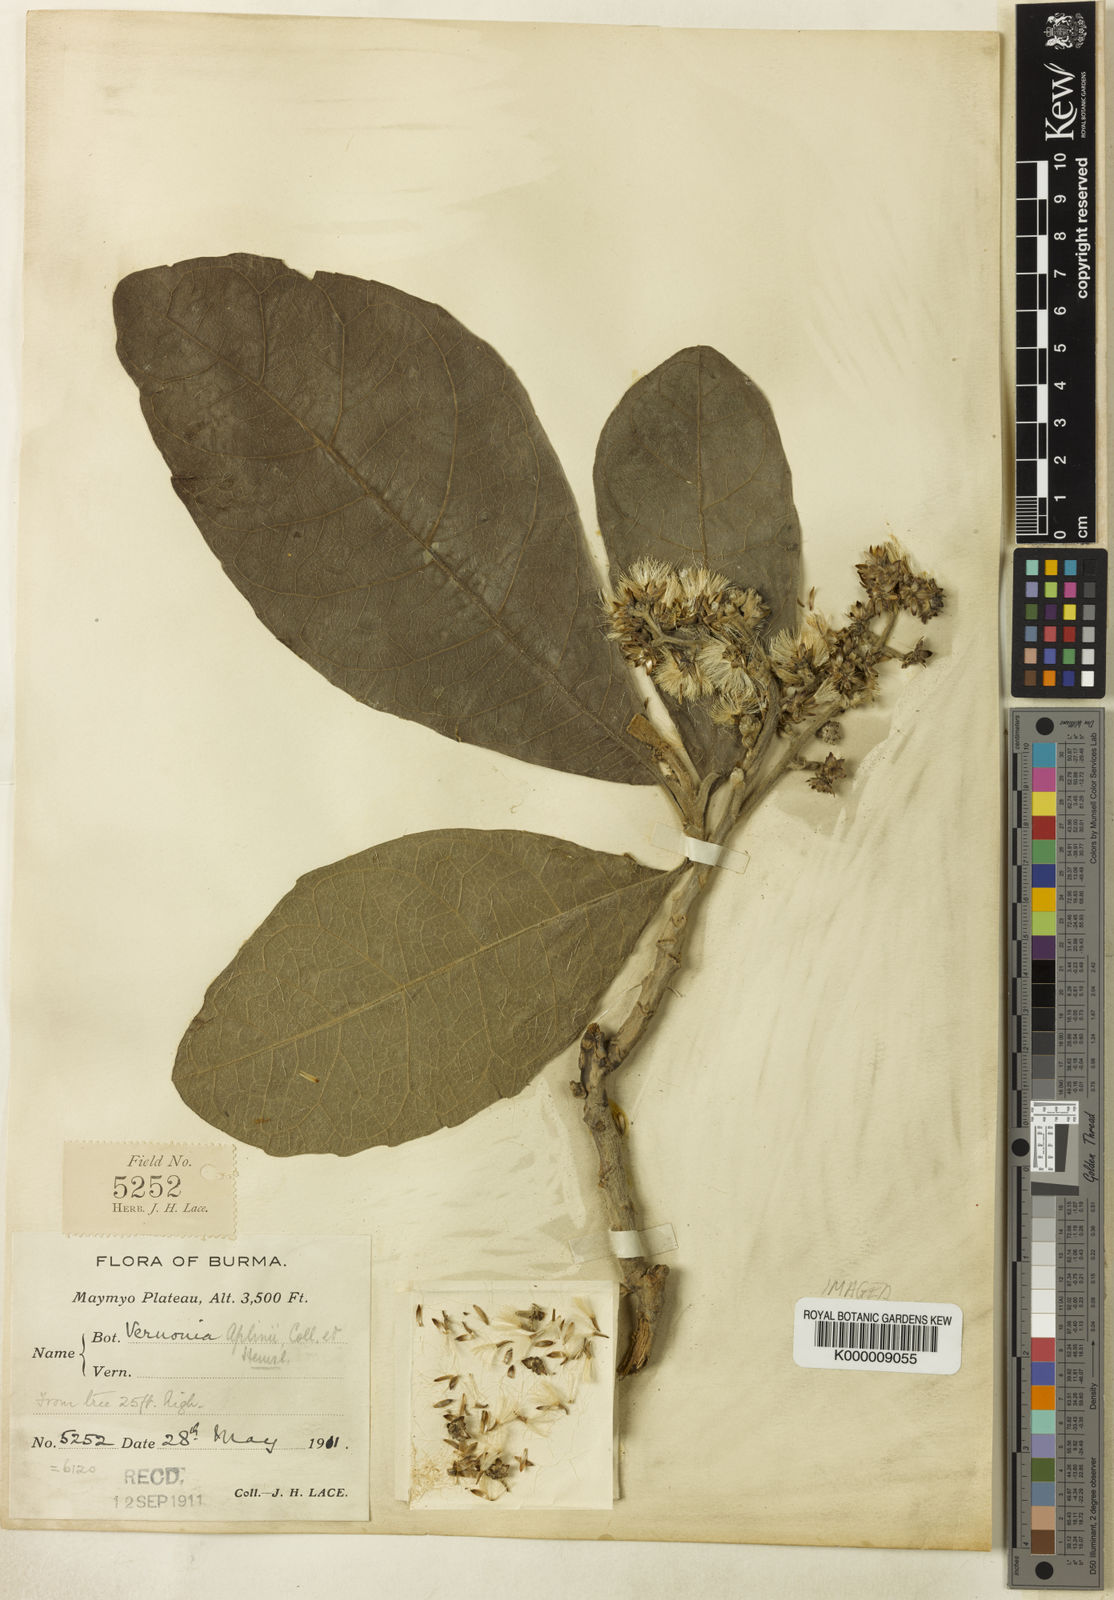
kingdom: Plantae
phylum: Tracheophyta
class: Magnoliopsida
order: Asterales
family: Asteraceae
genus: Monosis
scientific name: Monosis aplinii
